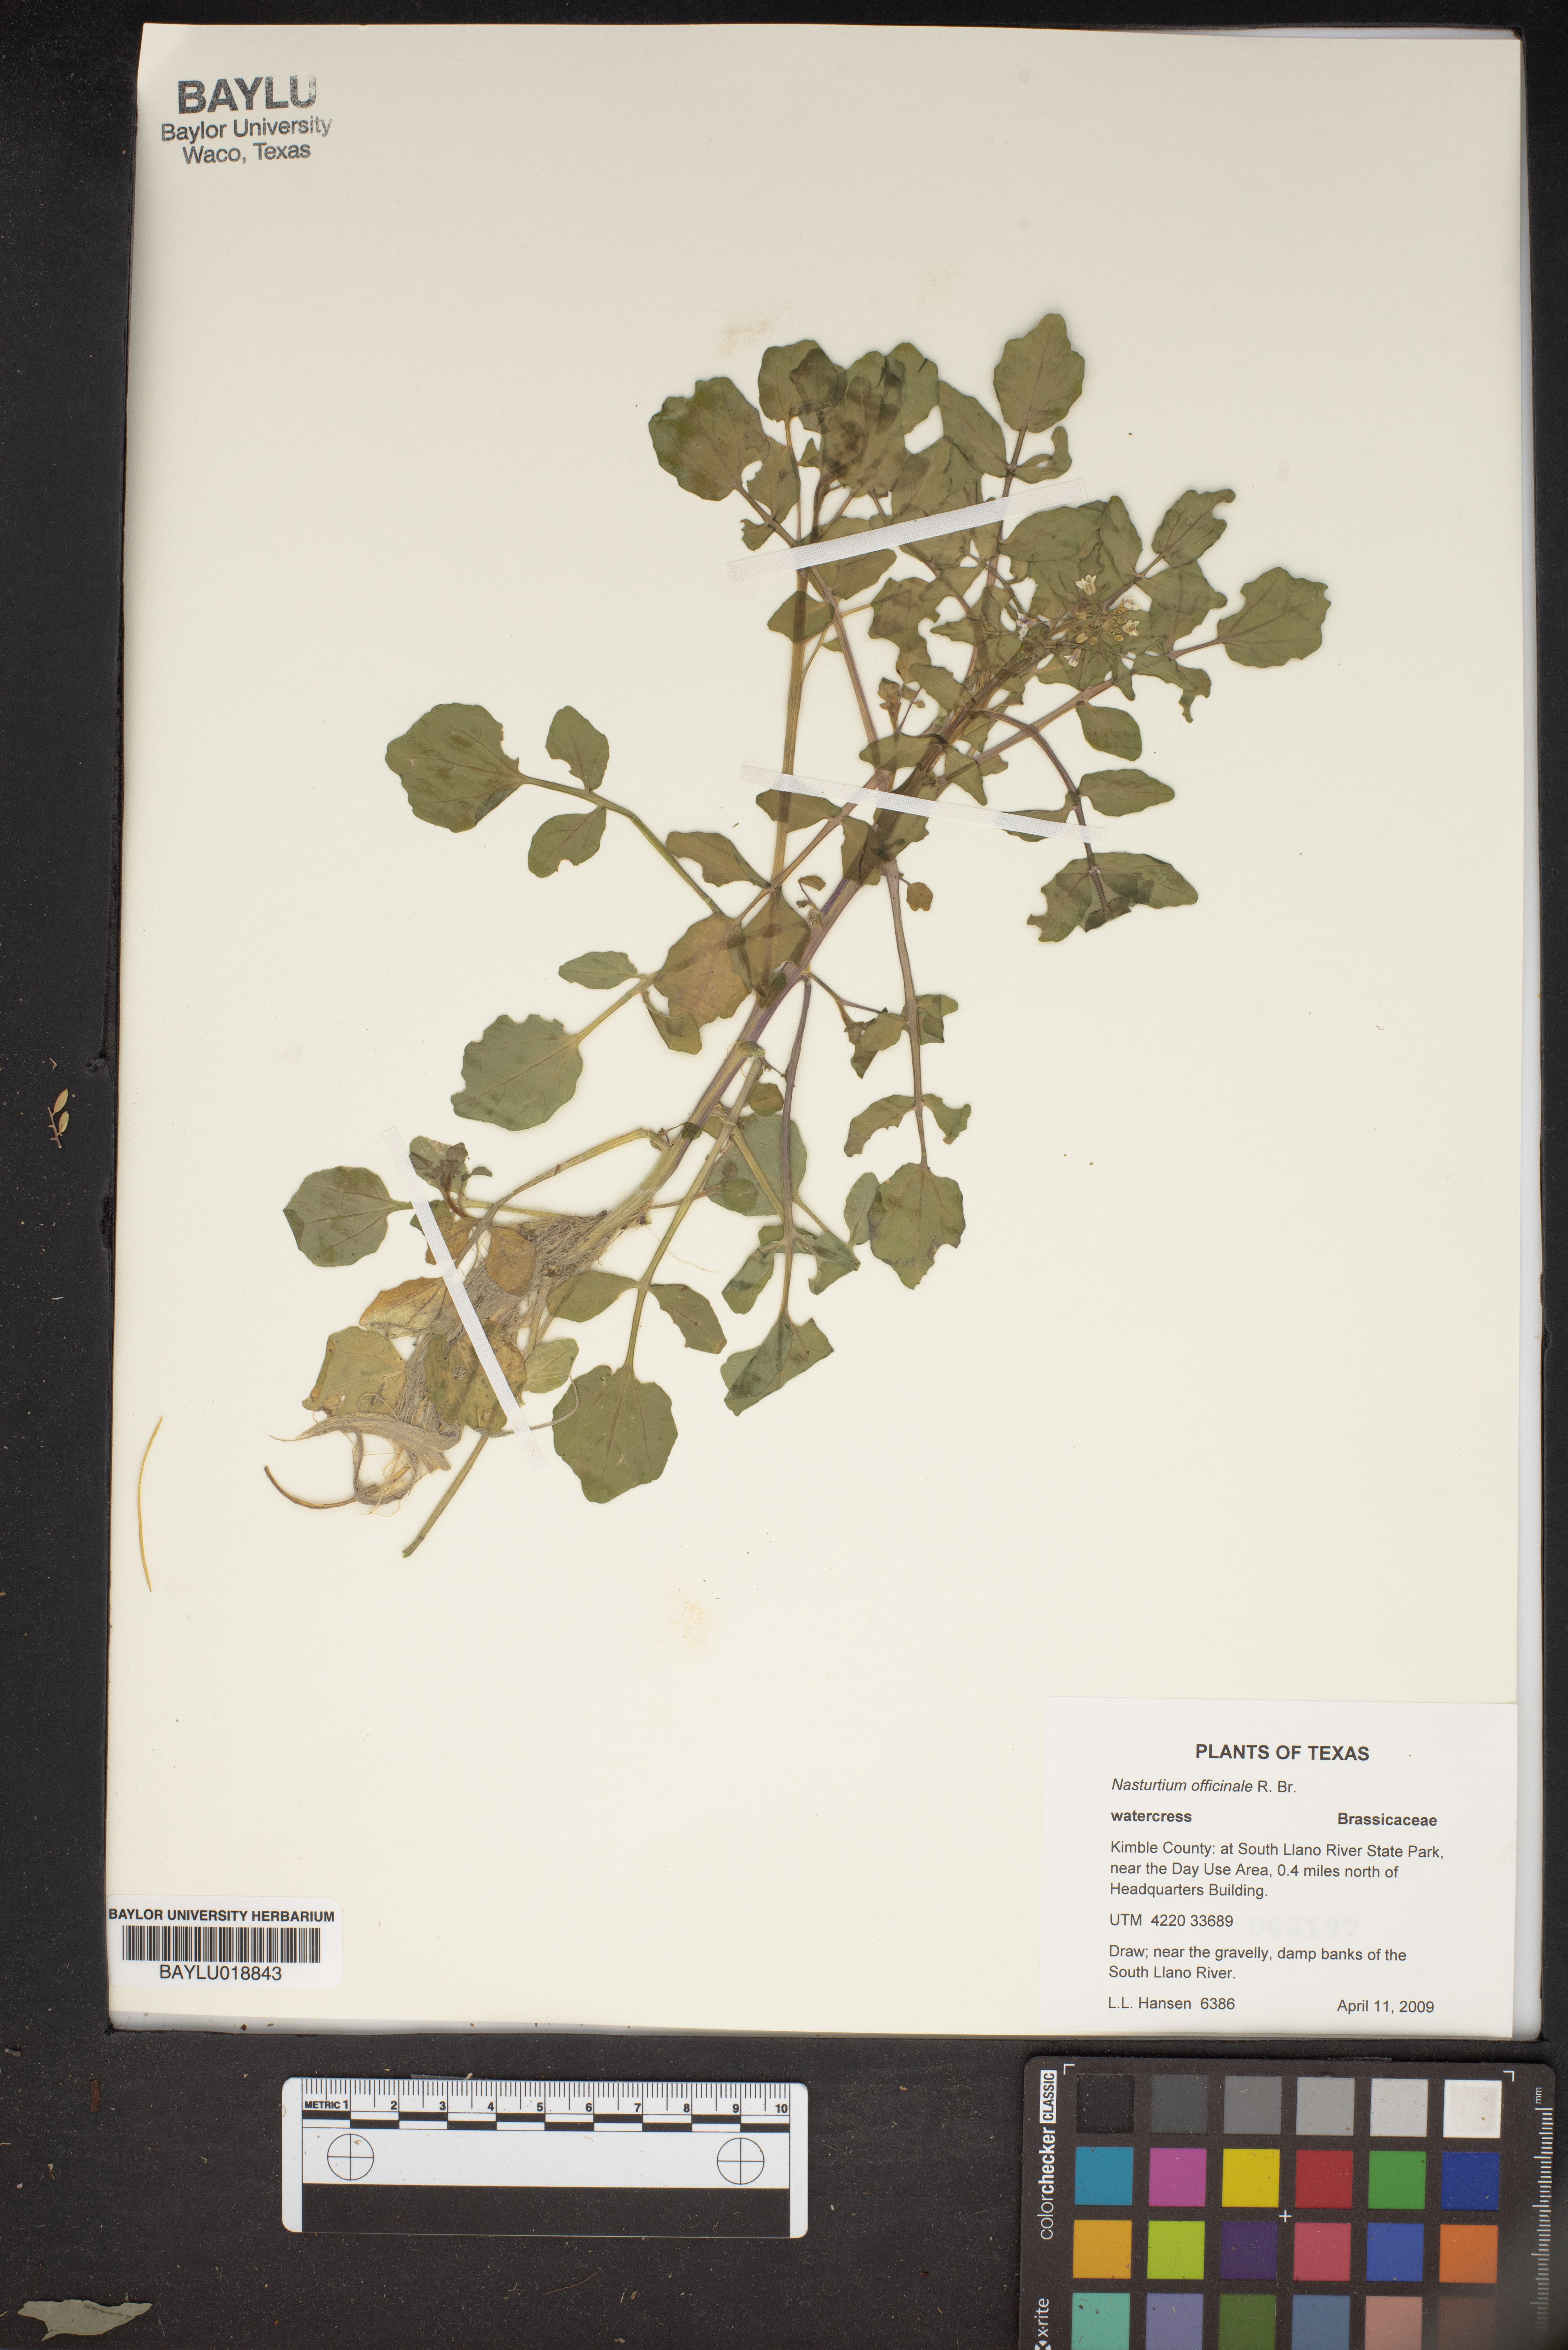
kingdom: Plantae
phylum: Tracheophyta
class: Magnoliopsida
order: Brassicales
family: Brassicaceae
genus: Nasturtium
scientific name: Nasturtium officinale
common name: Watercress
